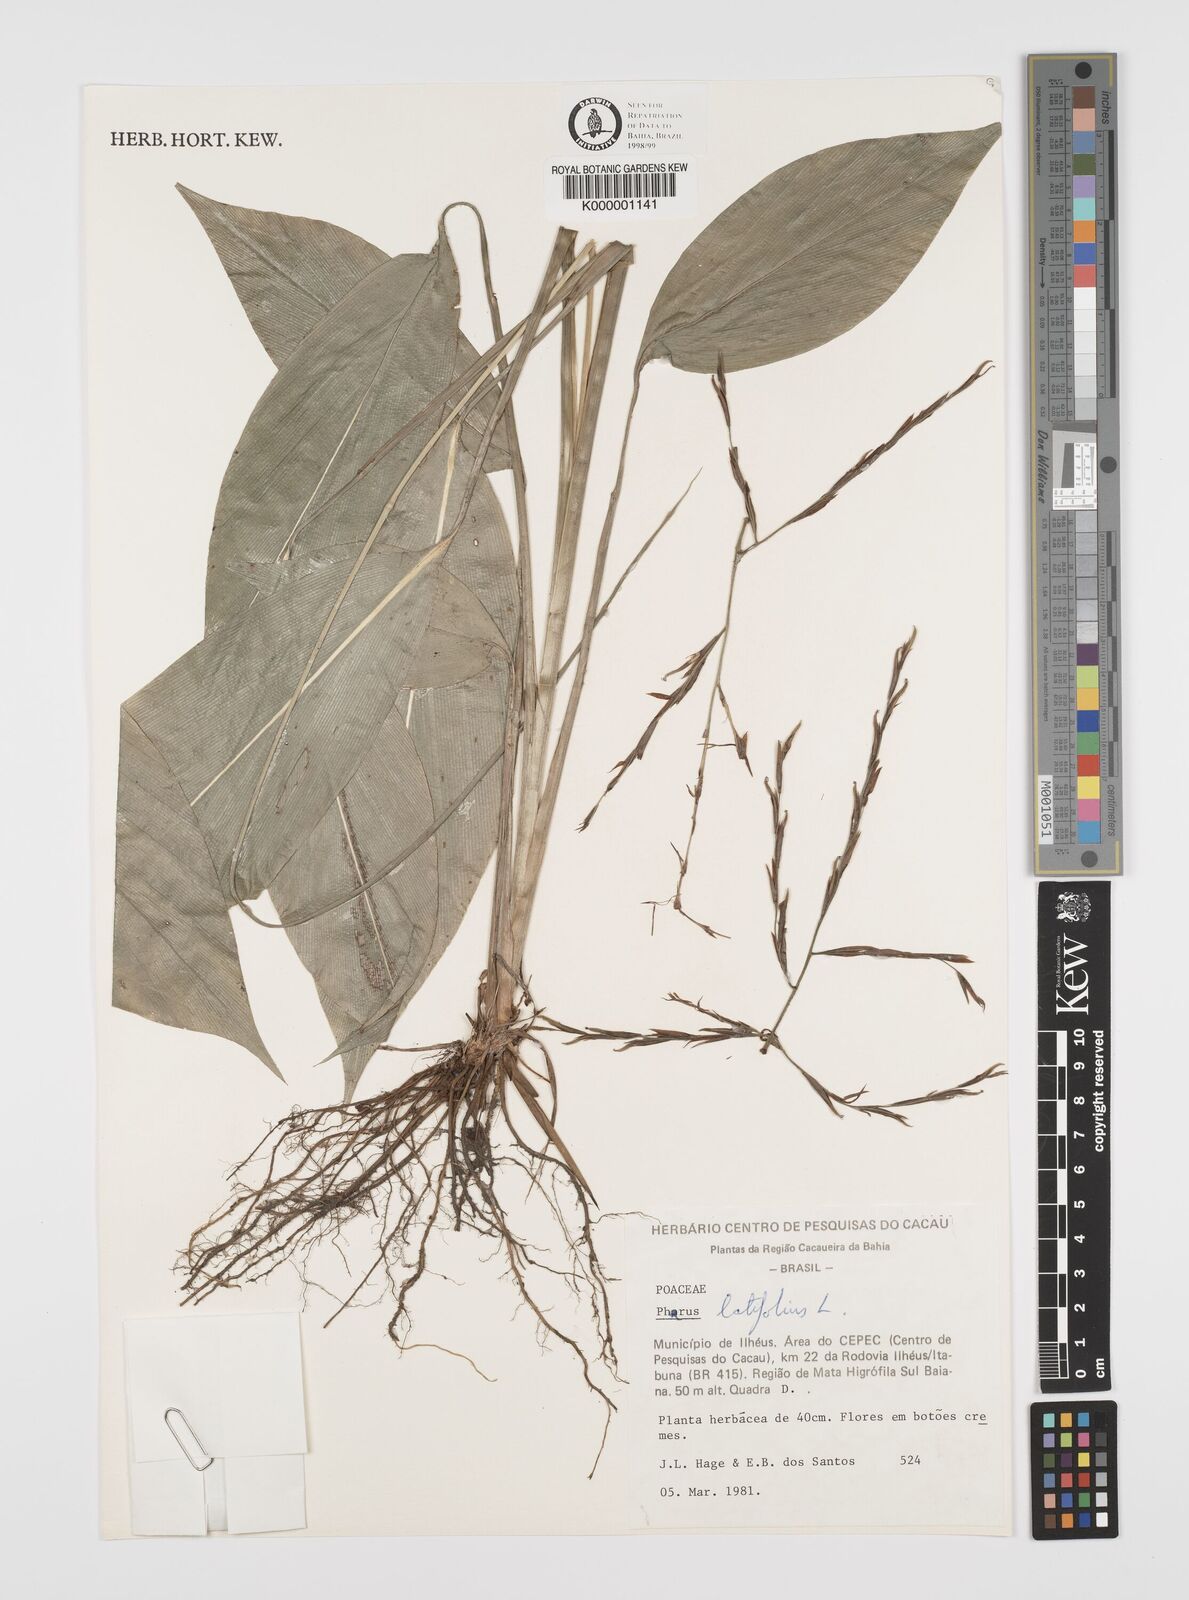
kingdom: Plantae
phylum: Tracheophyta
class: Liliopsida
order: Poales
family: Poaceae
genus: Pharus
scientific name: Pharus latifolius
